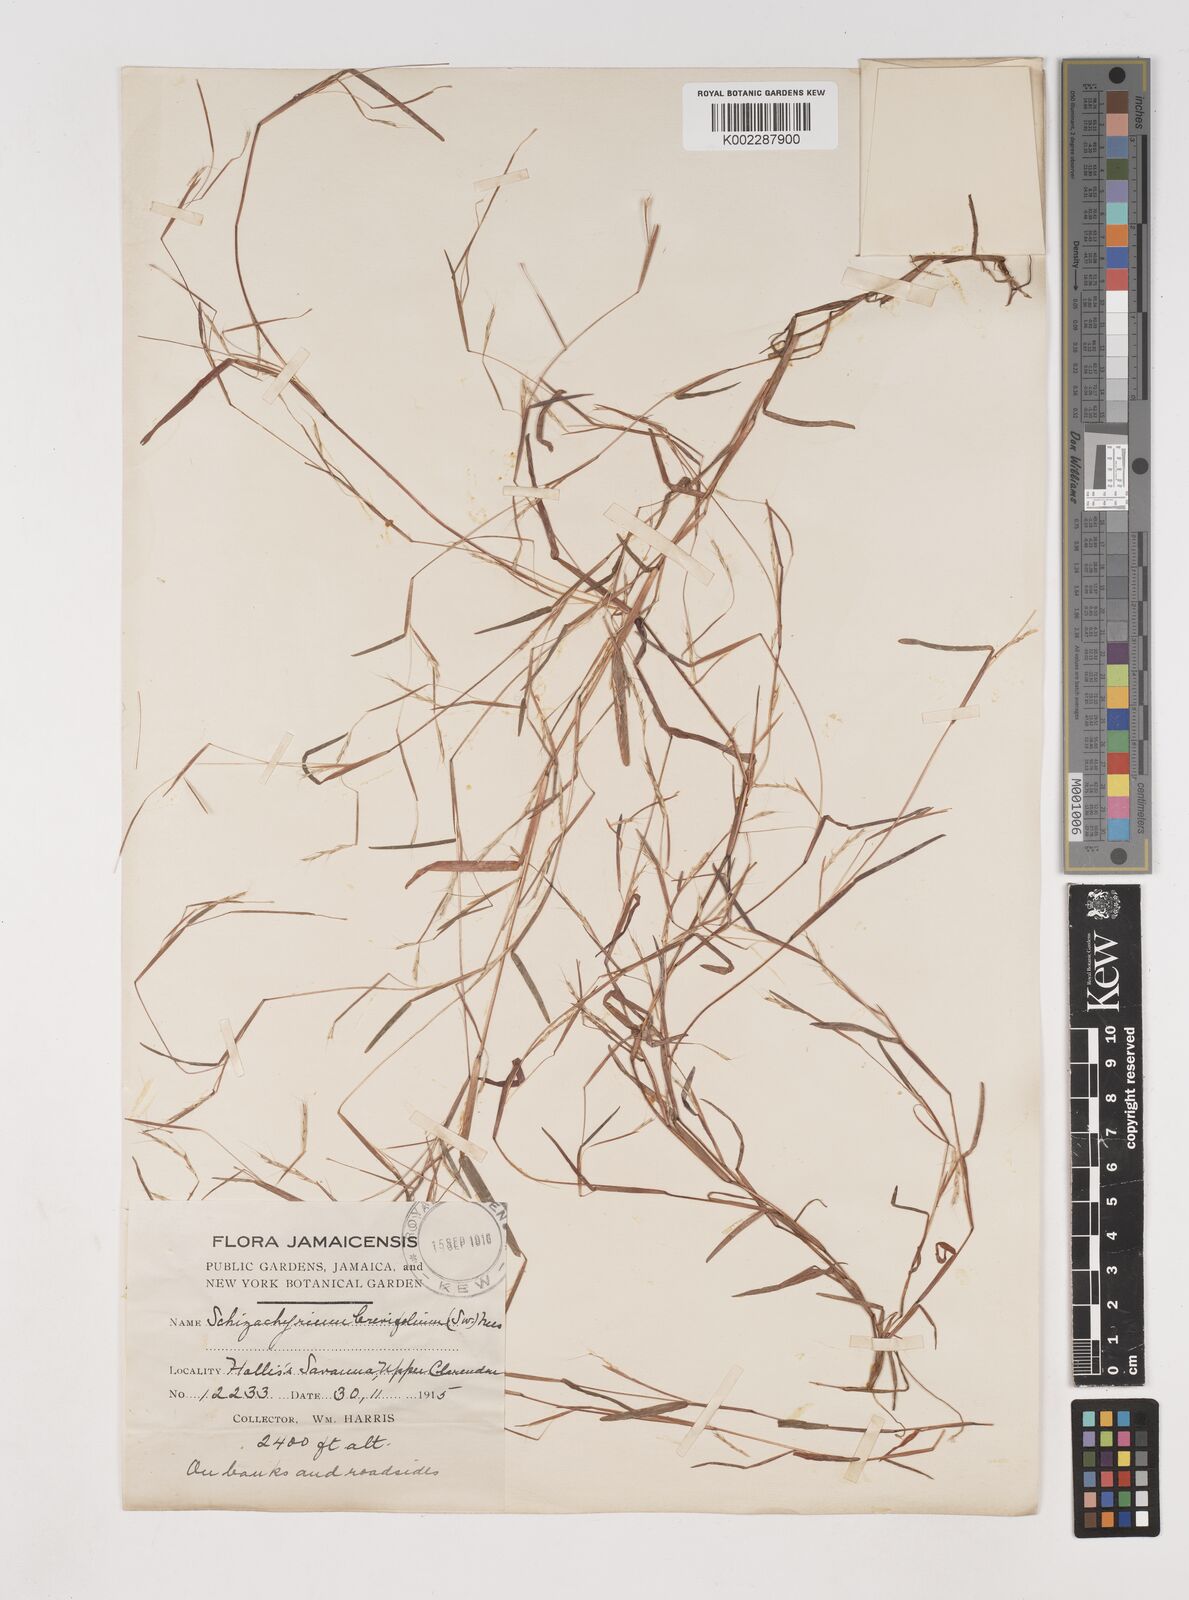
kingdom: Plantae
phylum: Tracheophyta
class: Liliopsida
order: Poales
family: Poaceae
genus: Schizachyrium
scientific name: Schizachyrium brevifolium
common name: Serillo dulce
